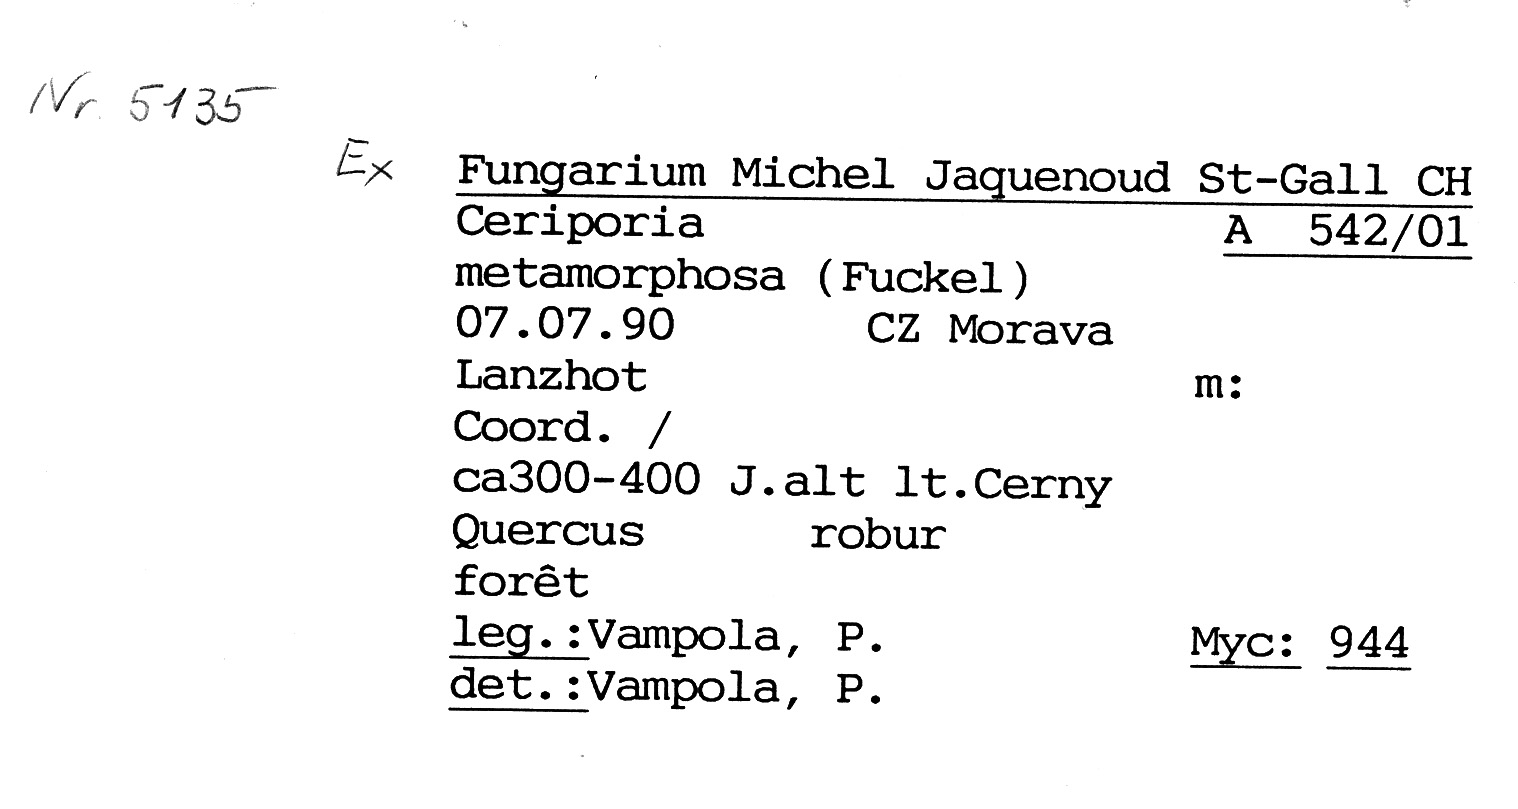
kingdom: Plantae
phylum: Tracheophyta
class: Magnoliopsida
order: Fagales
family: Fagaceae
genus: Quercus
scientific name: Quercus robur
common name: Pedunculate oak
